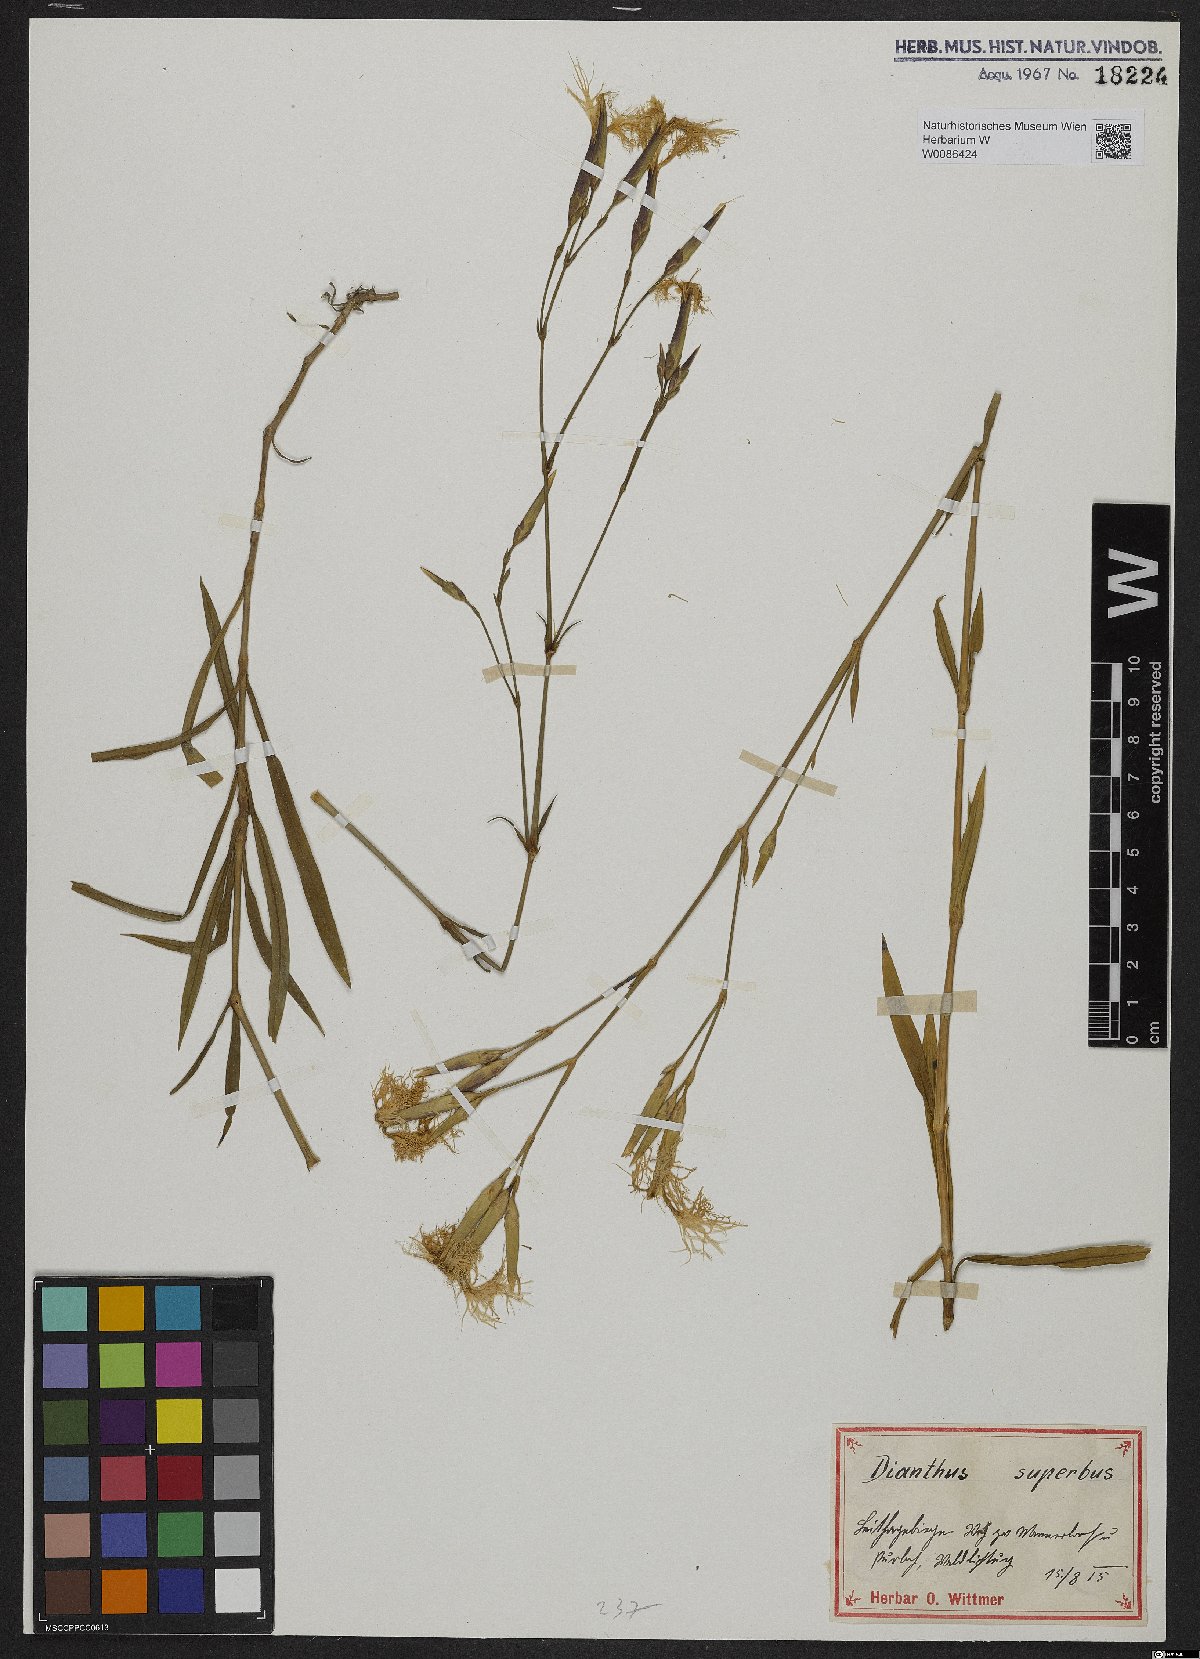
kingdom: Plantae
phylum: Tracheophyta
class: Magnoliopsida
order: Caryophyllales
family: Caryophyllaceae
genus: Dianthus
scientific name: Dianthus superbus
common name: Fringed pink
